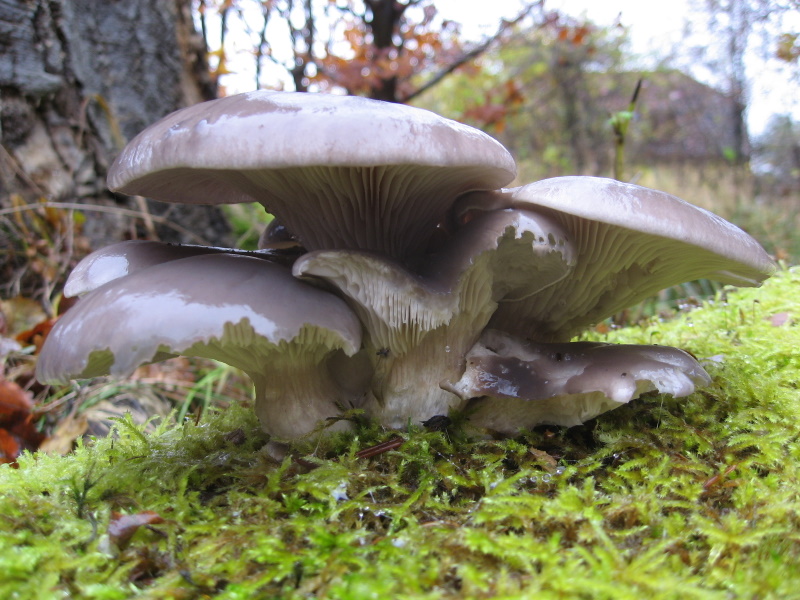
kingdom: Fungi
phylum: Basidiomycota
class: Agaricomycetes
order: Agaricales
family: Pleurotaceae
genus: Pleurotus
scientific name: Pleurotus ostreatus
